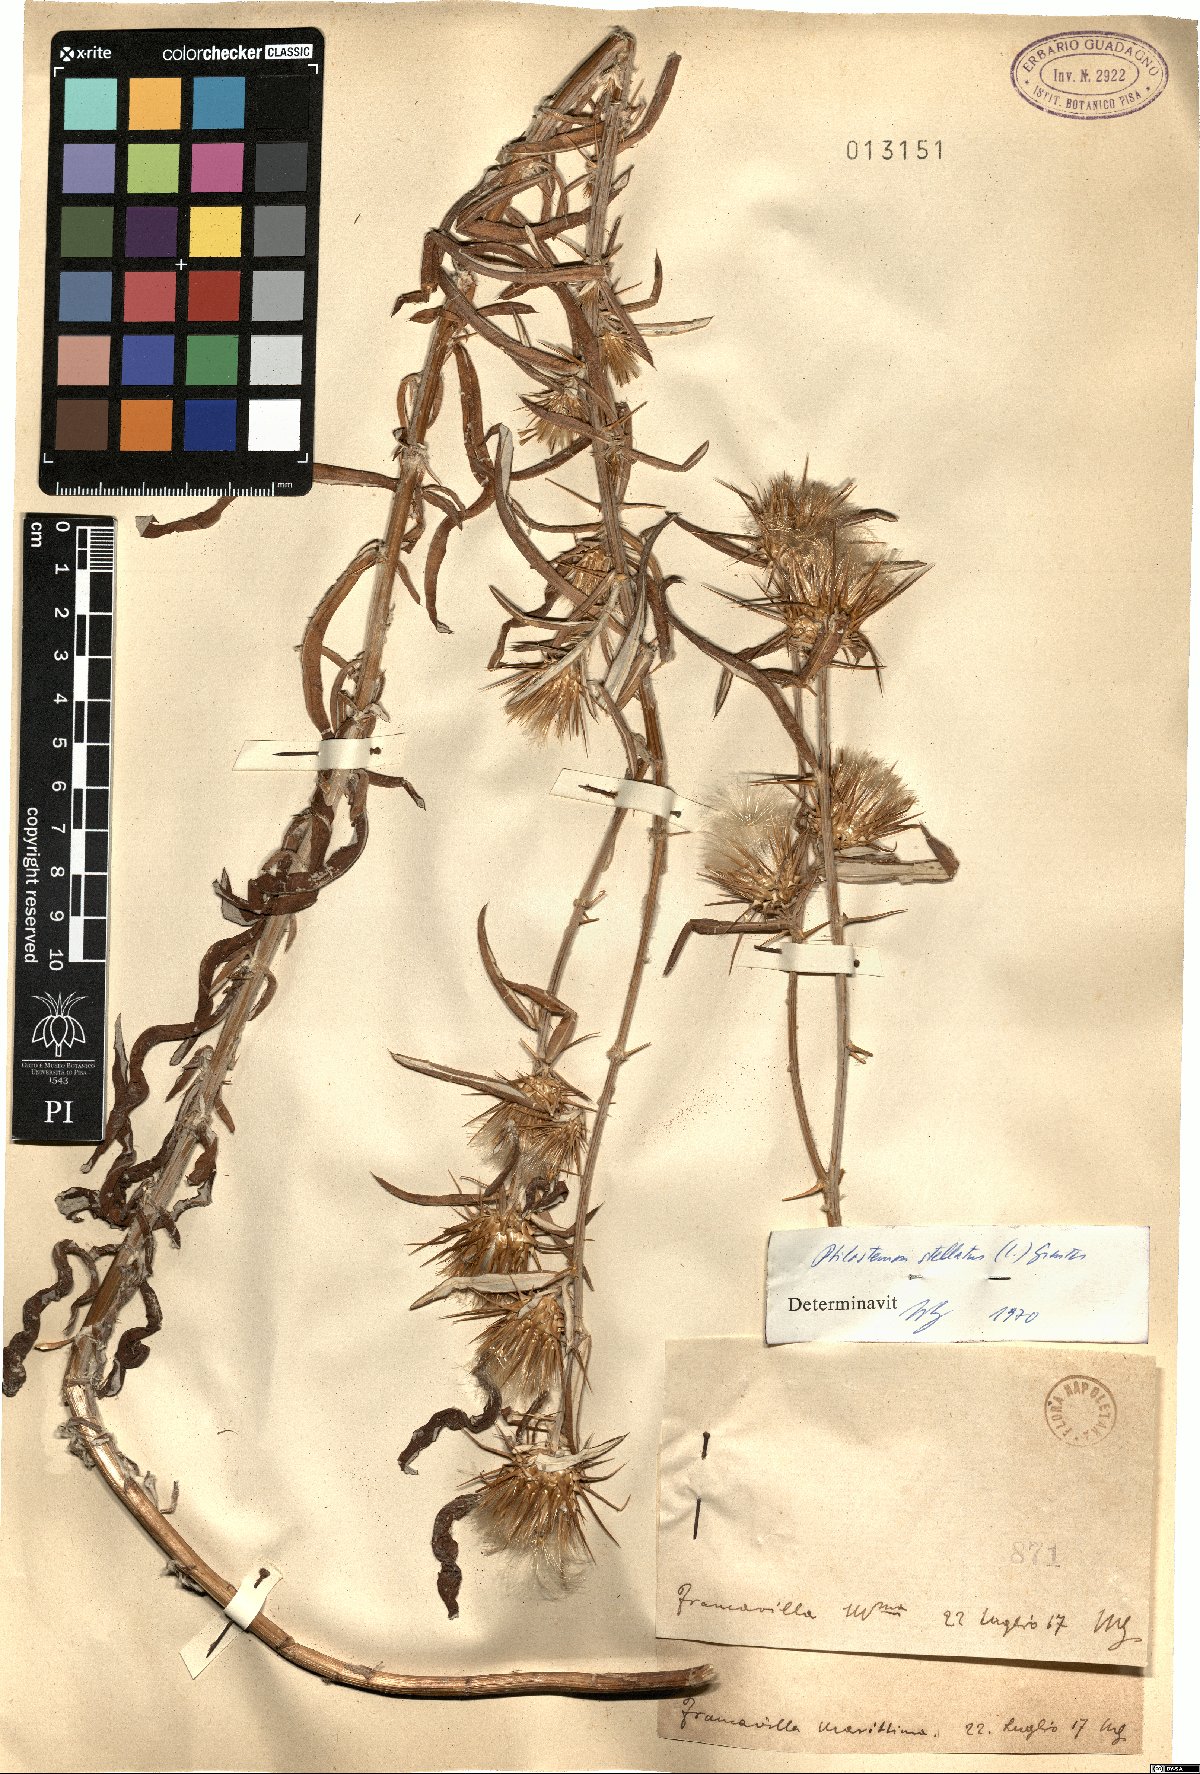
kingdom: Plantae
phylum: Tracheophyta
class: Magnoliopsida
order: Asterales
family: Asteraceae
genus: Ptilostemon
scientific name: Ptilostemon stellatus
